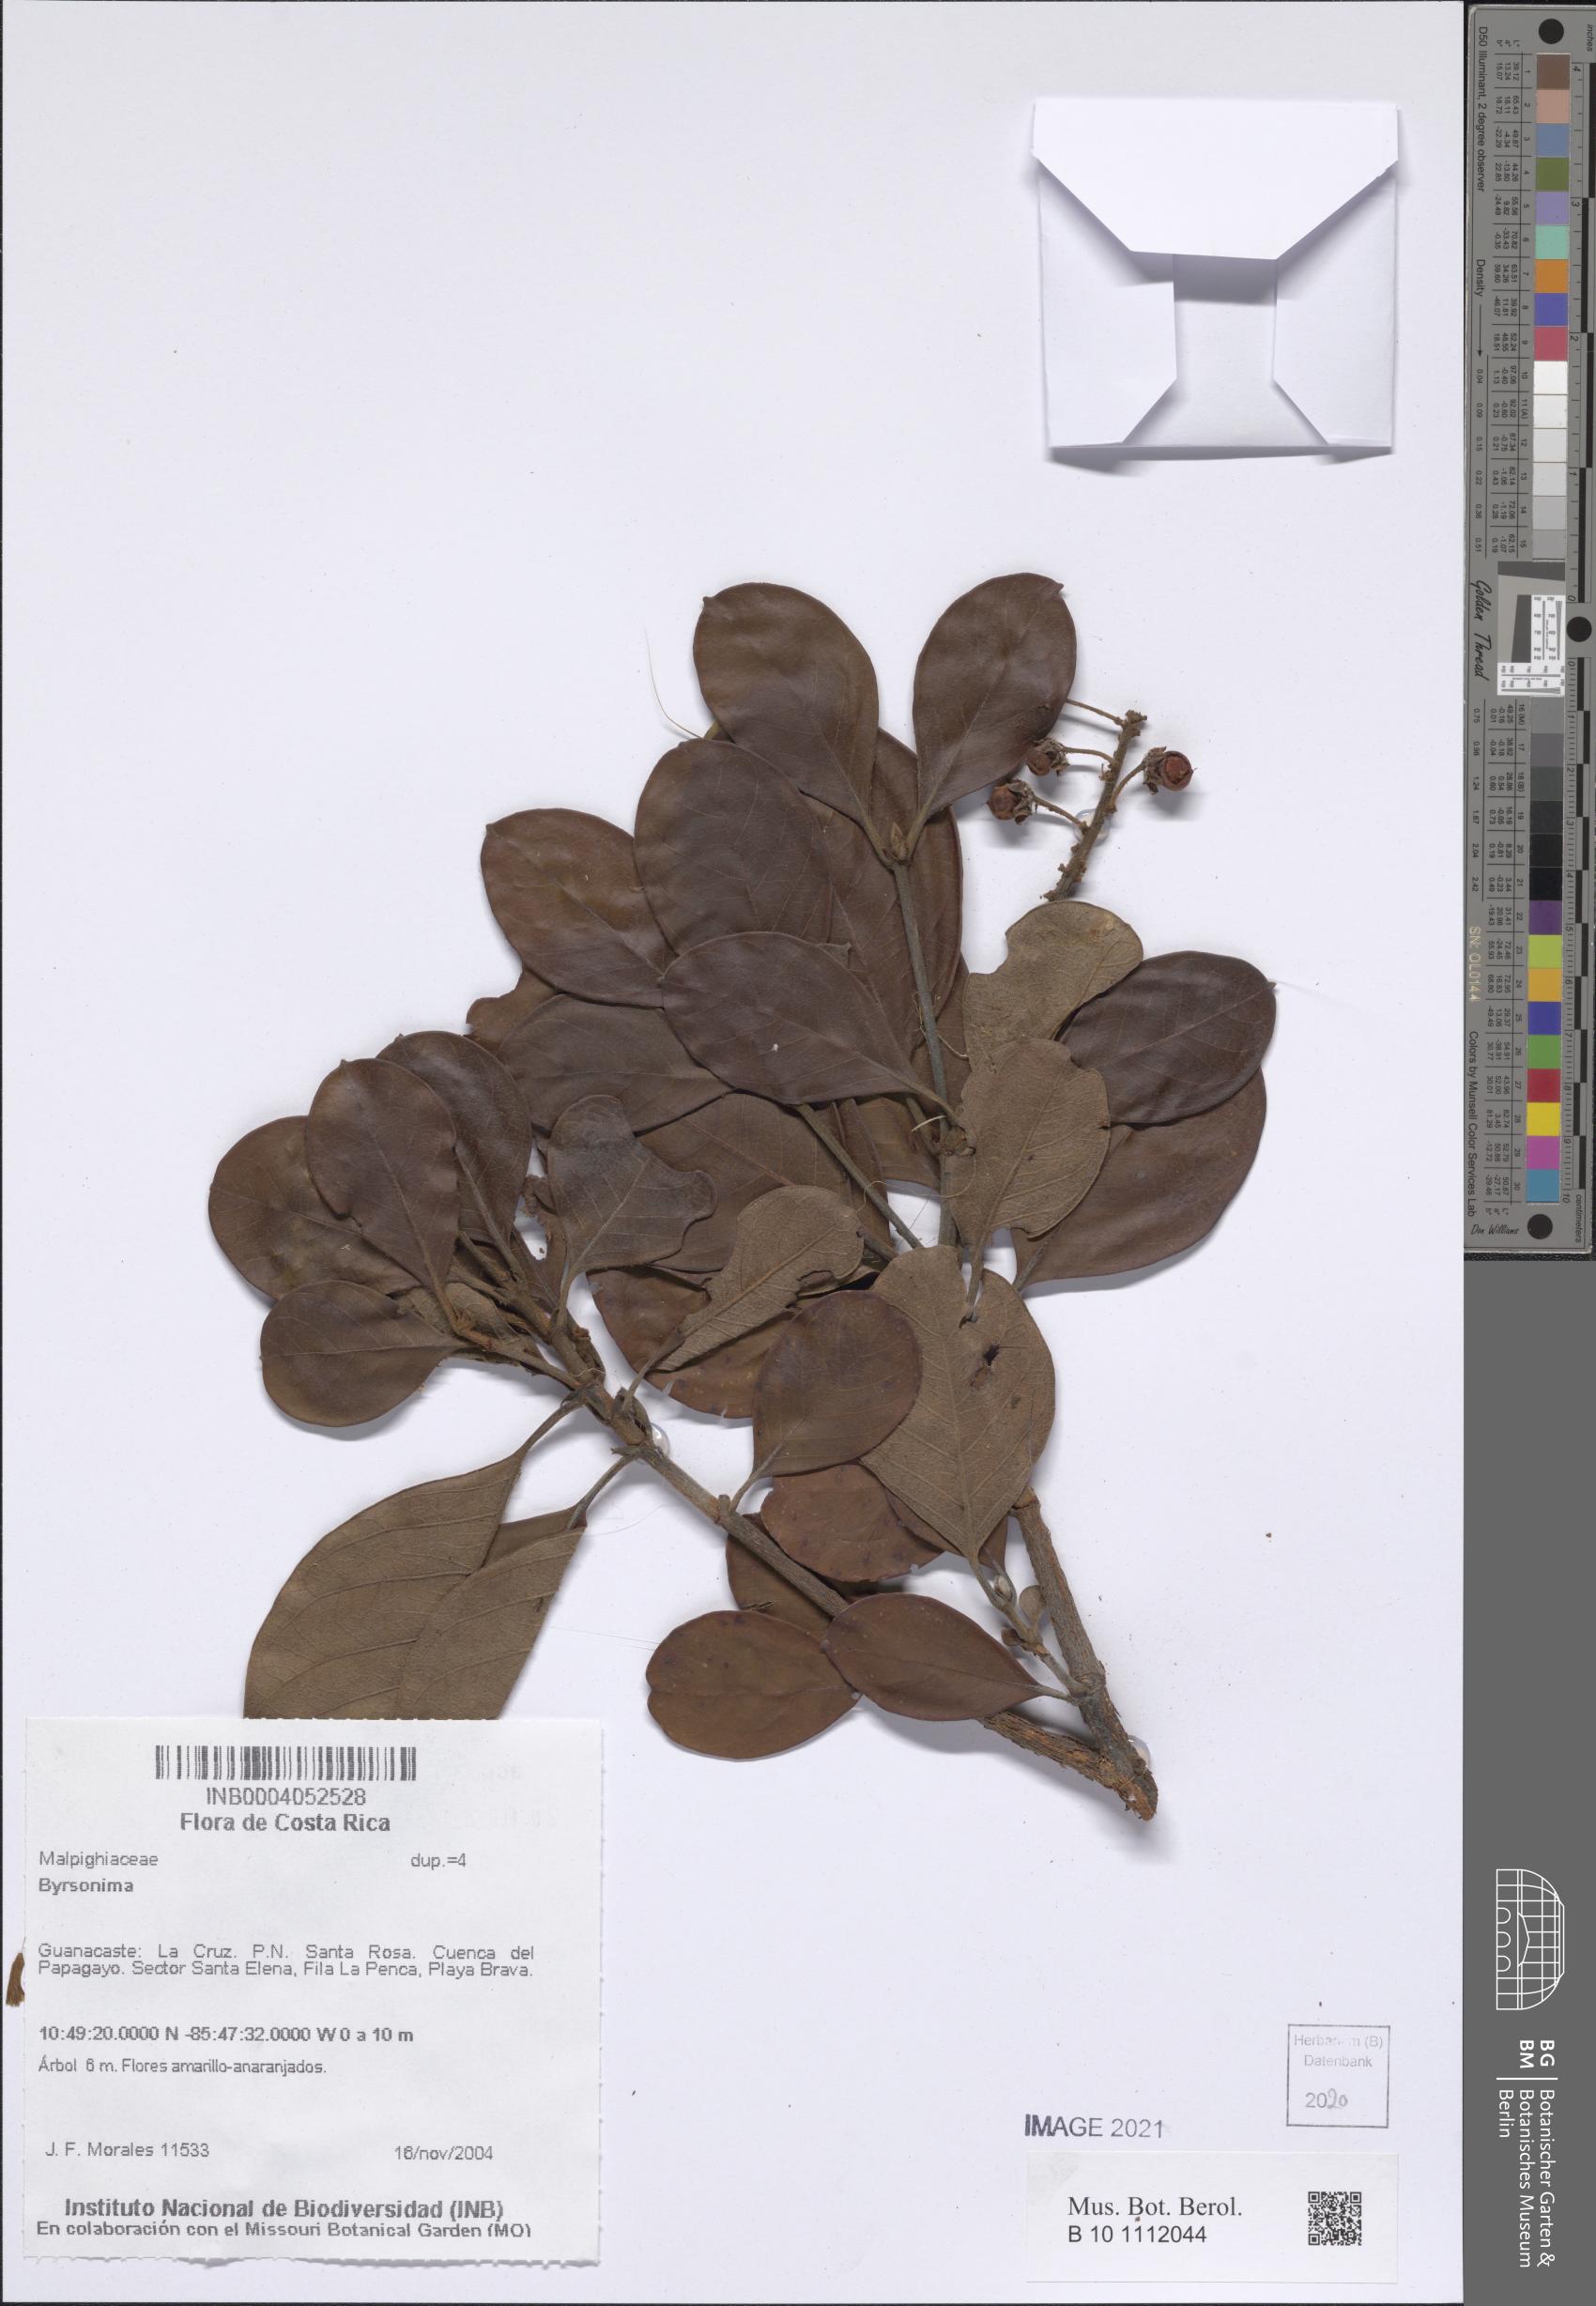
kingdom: Plantae
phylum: Tracheophyta
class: Magnoliopsida
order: Malpighiales
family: Malpighiaceae
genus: Byrsonima
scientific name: Byrsonima
